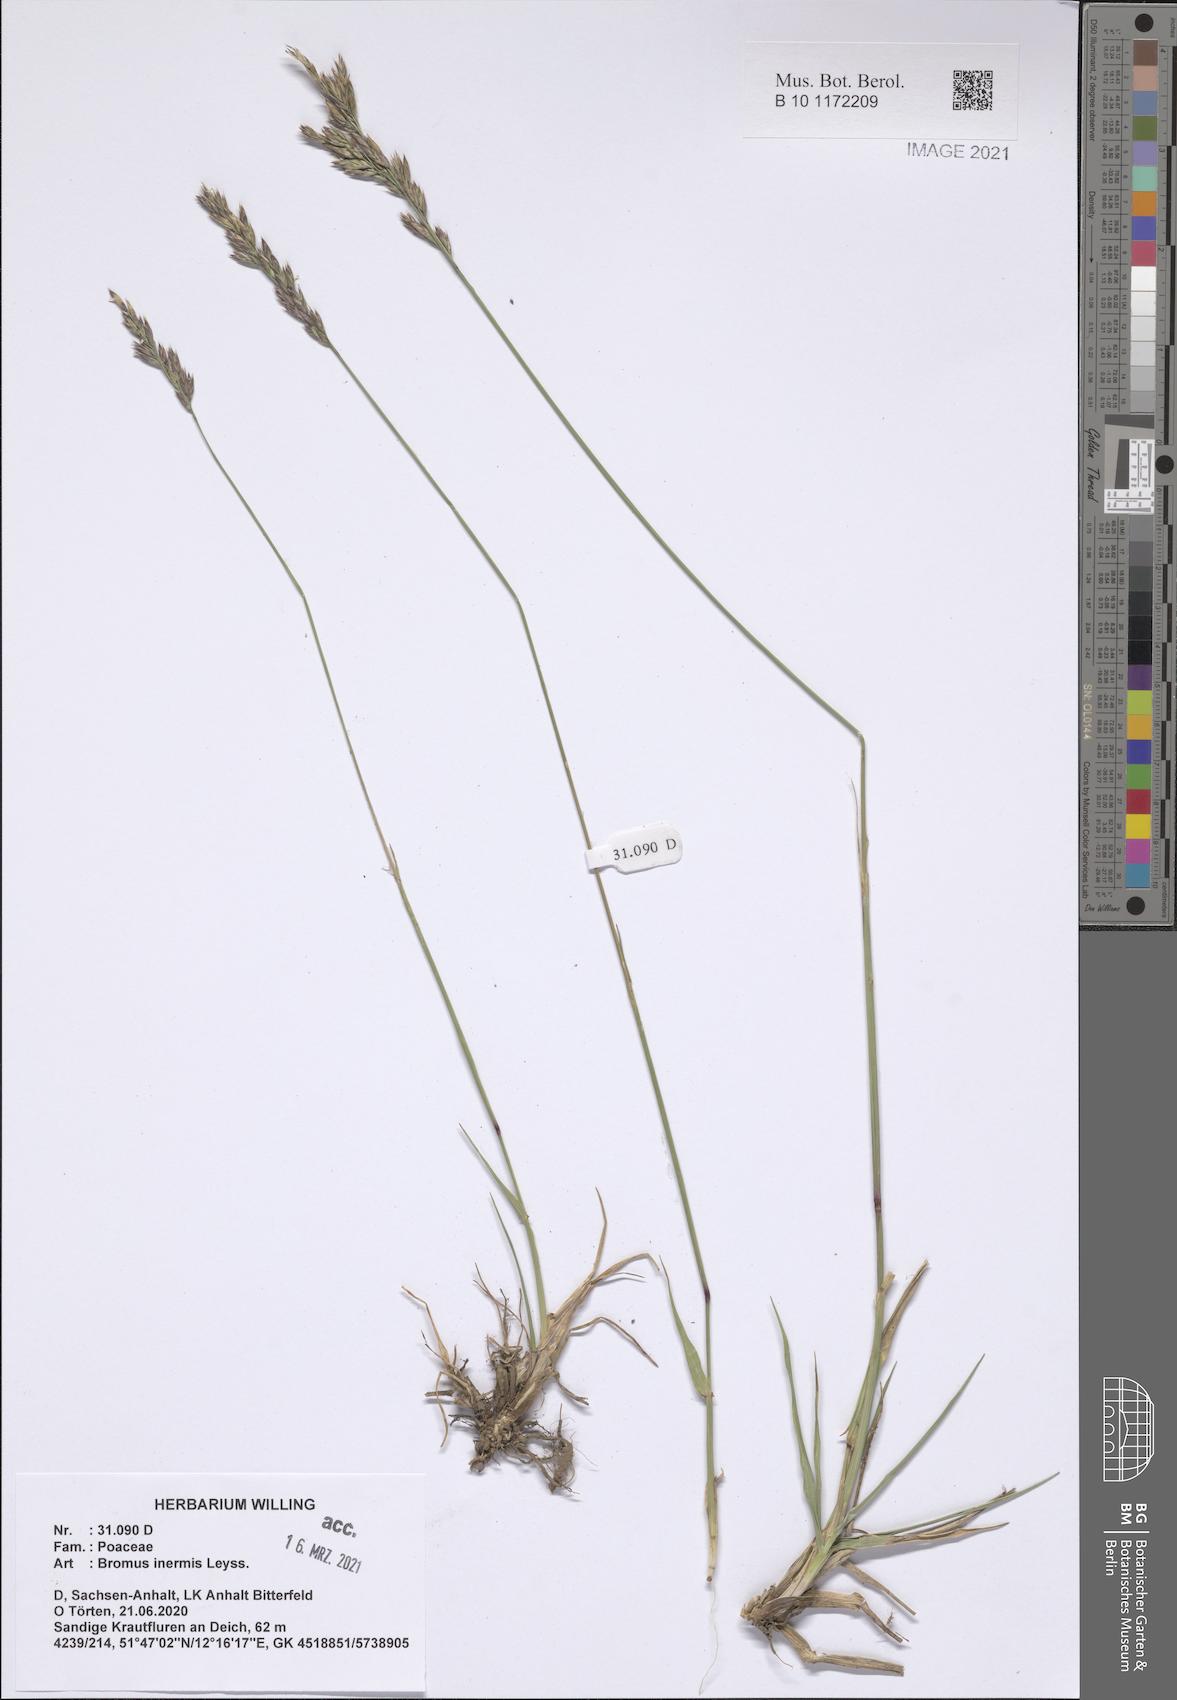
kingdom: Plantae
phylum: Tracheophyta
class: Liliopsida
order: Poales
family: Poaceae
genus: Bromus
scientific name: Bromus inermis
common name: Smooth brome
